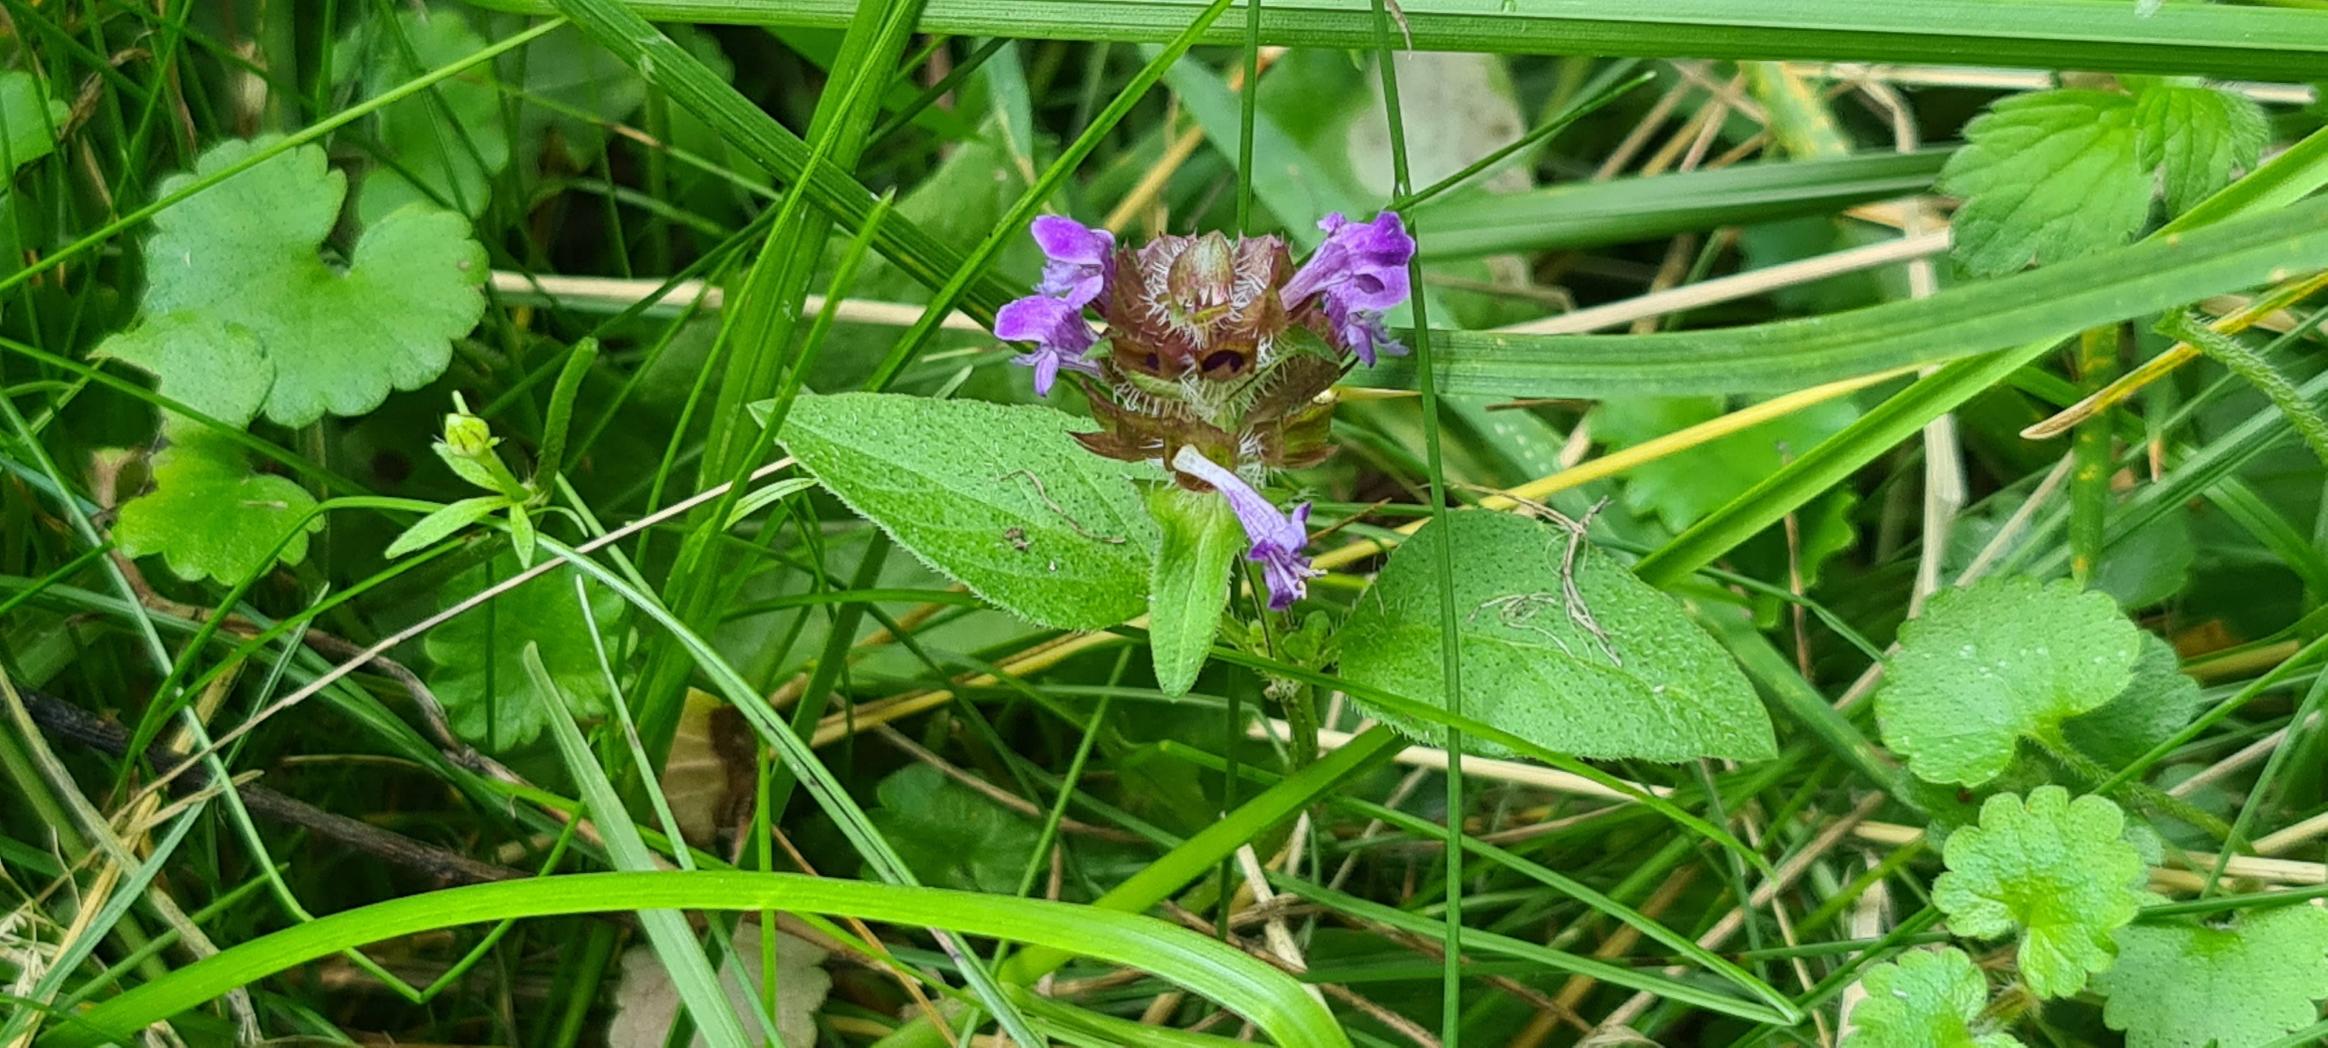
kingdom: Plantae
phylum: Tracheophyta
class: Magnoliopsida
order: Lamiales
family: Lamiaceae
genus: Prunella
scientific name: Prunella vulgaris
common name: Almindelig brunelle
